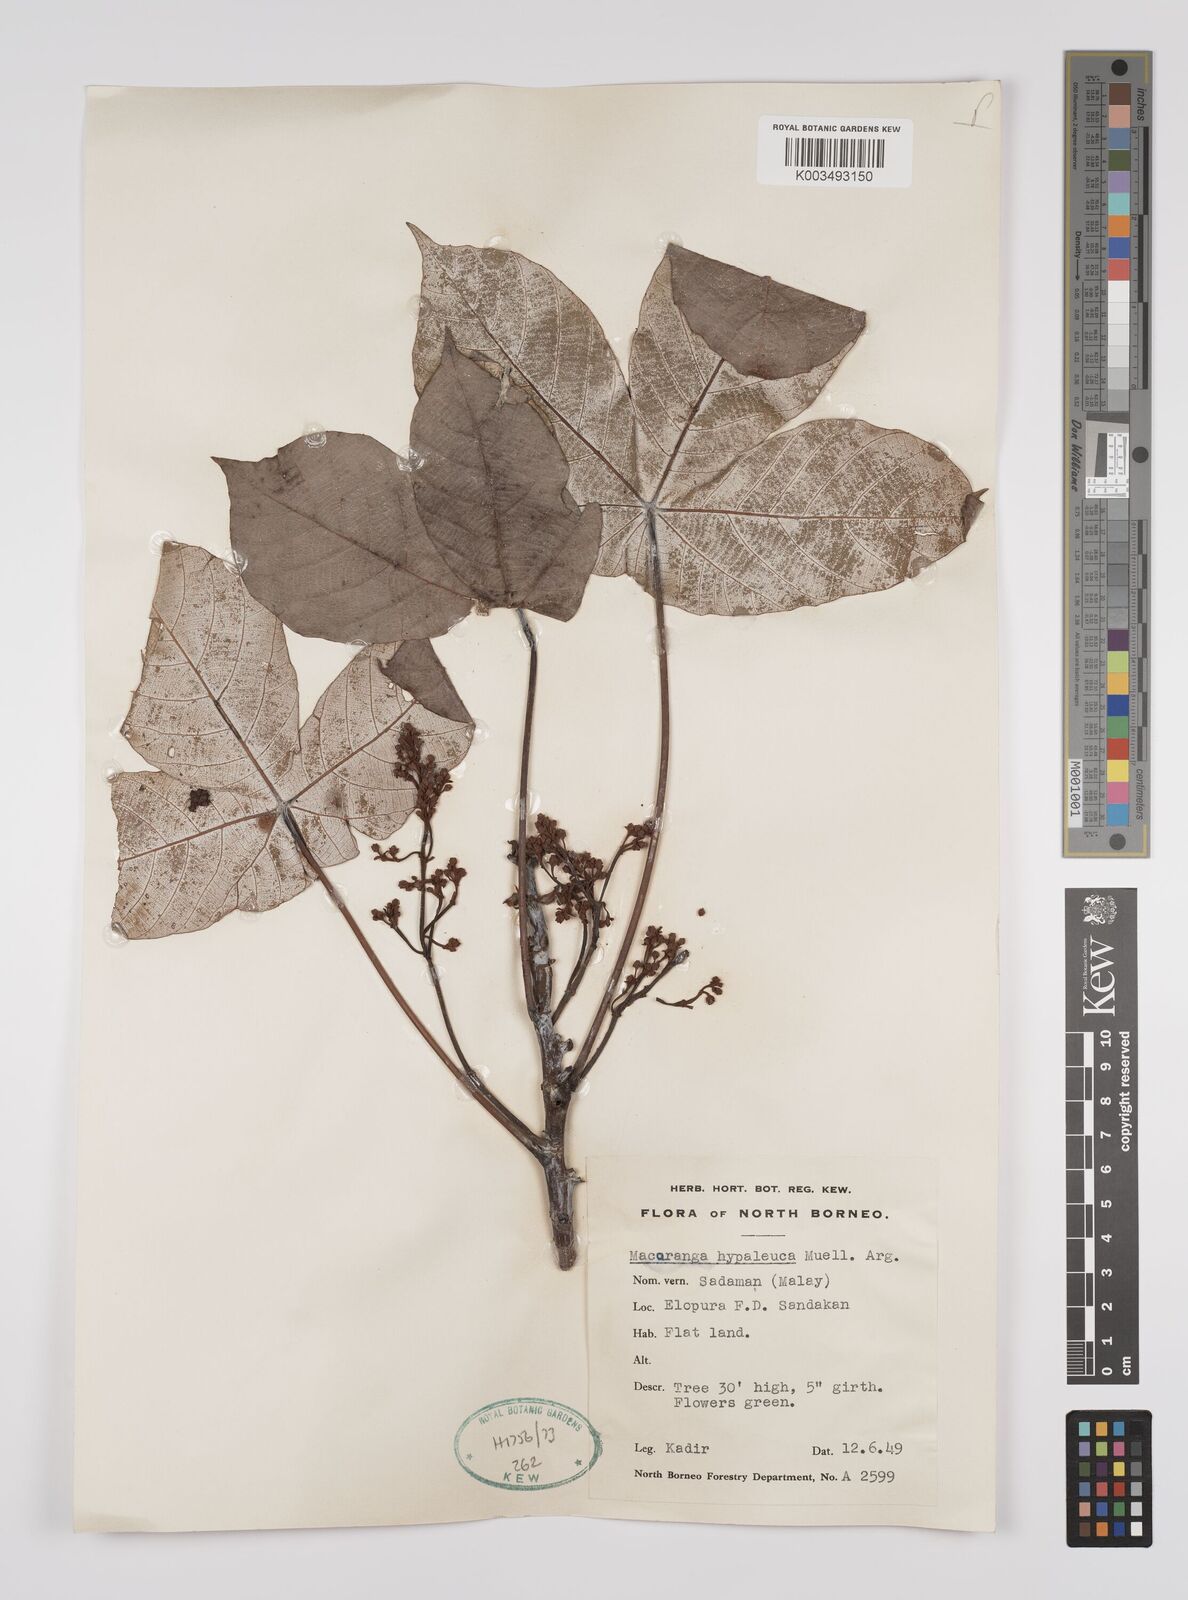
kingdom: Plantae
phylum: Tracheophyta
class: Magnoliopsida
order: Malpighiales
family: Euphorbiaceae
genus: Macaranga
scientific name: Macaranga hypoleuca
